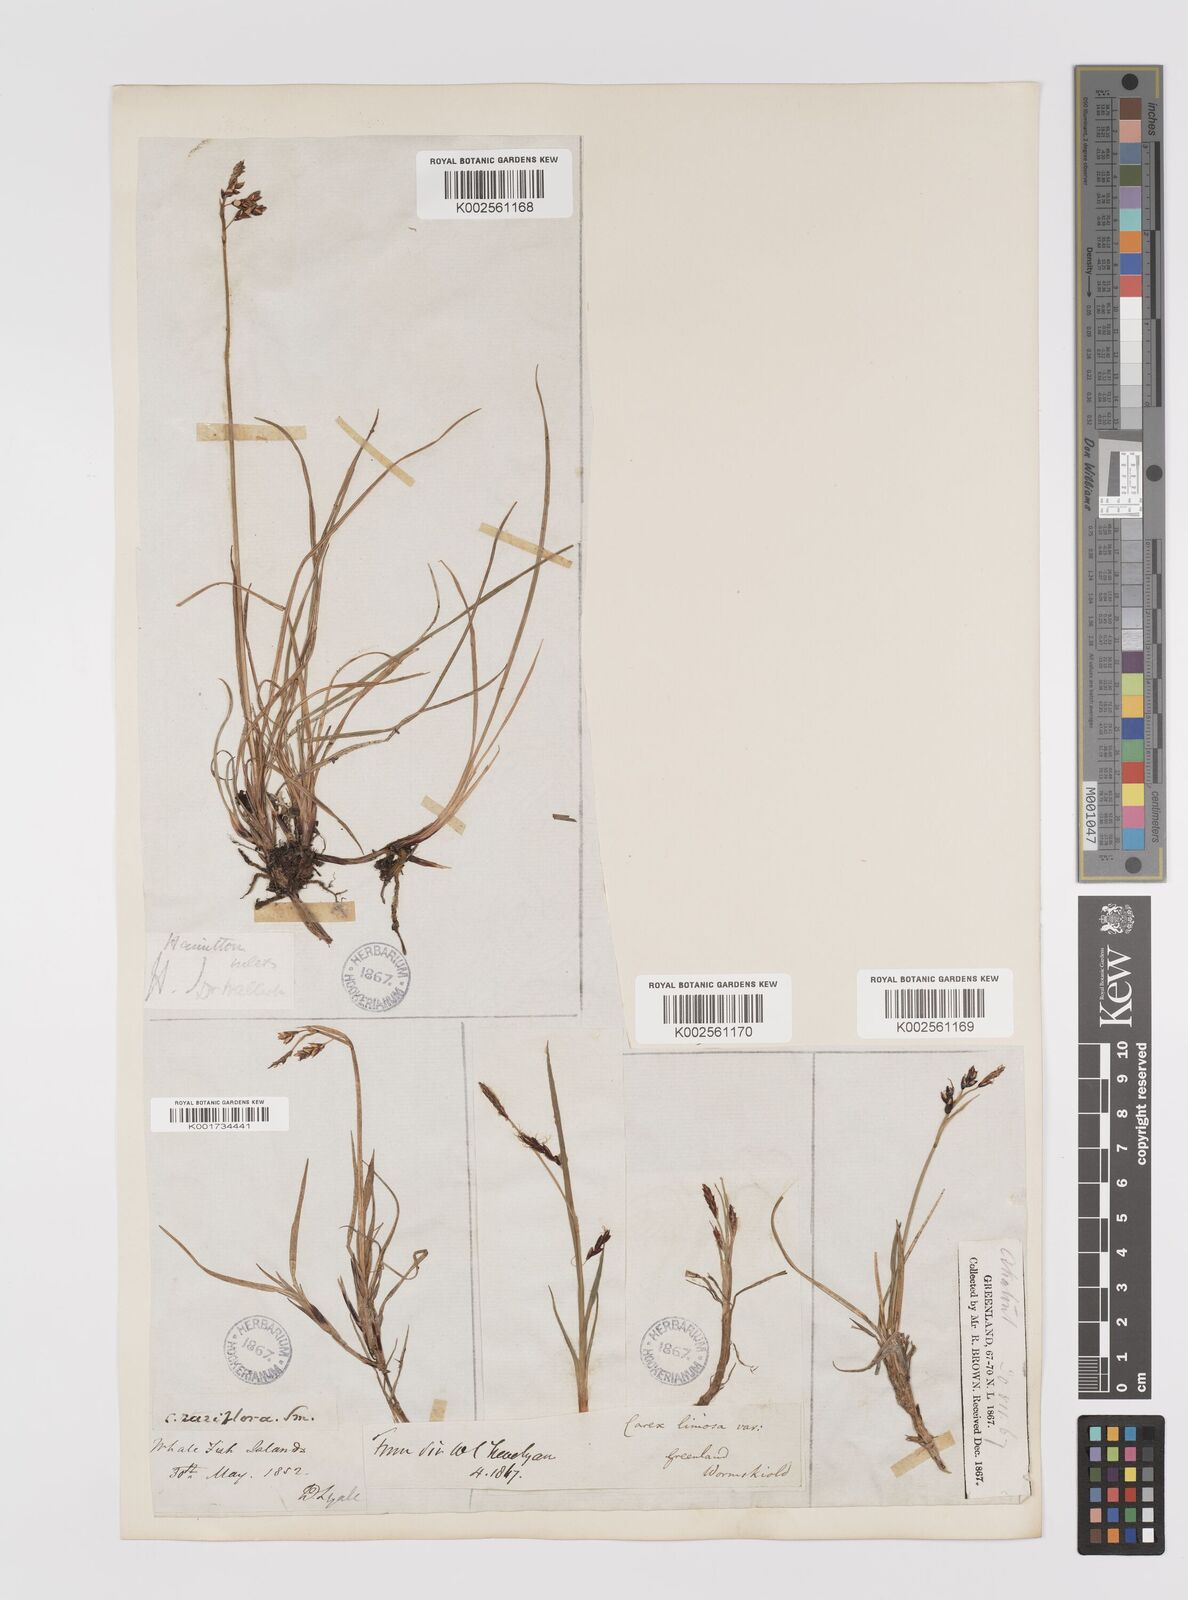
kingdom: Plantae
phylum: Tracheophyta
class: Liliopsida
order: Poales
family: Cyperaceae
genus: Carex
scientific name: Carex rariflora
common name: Loose-flowered alpine sedge
